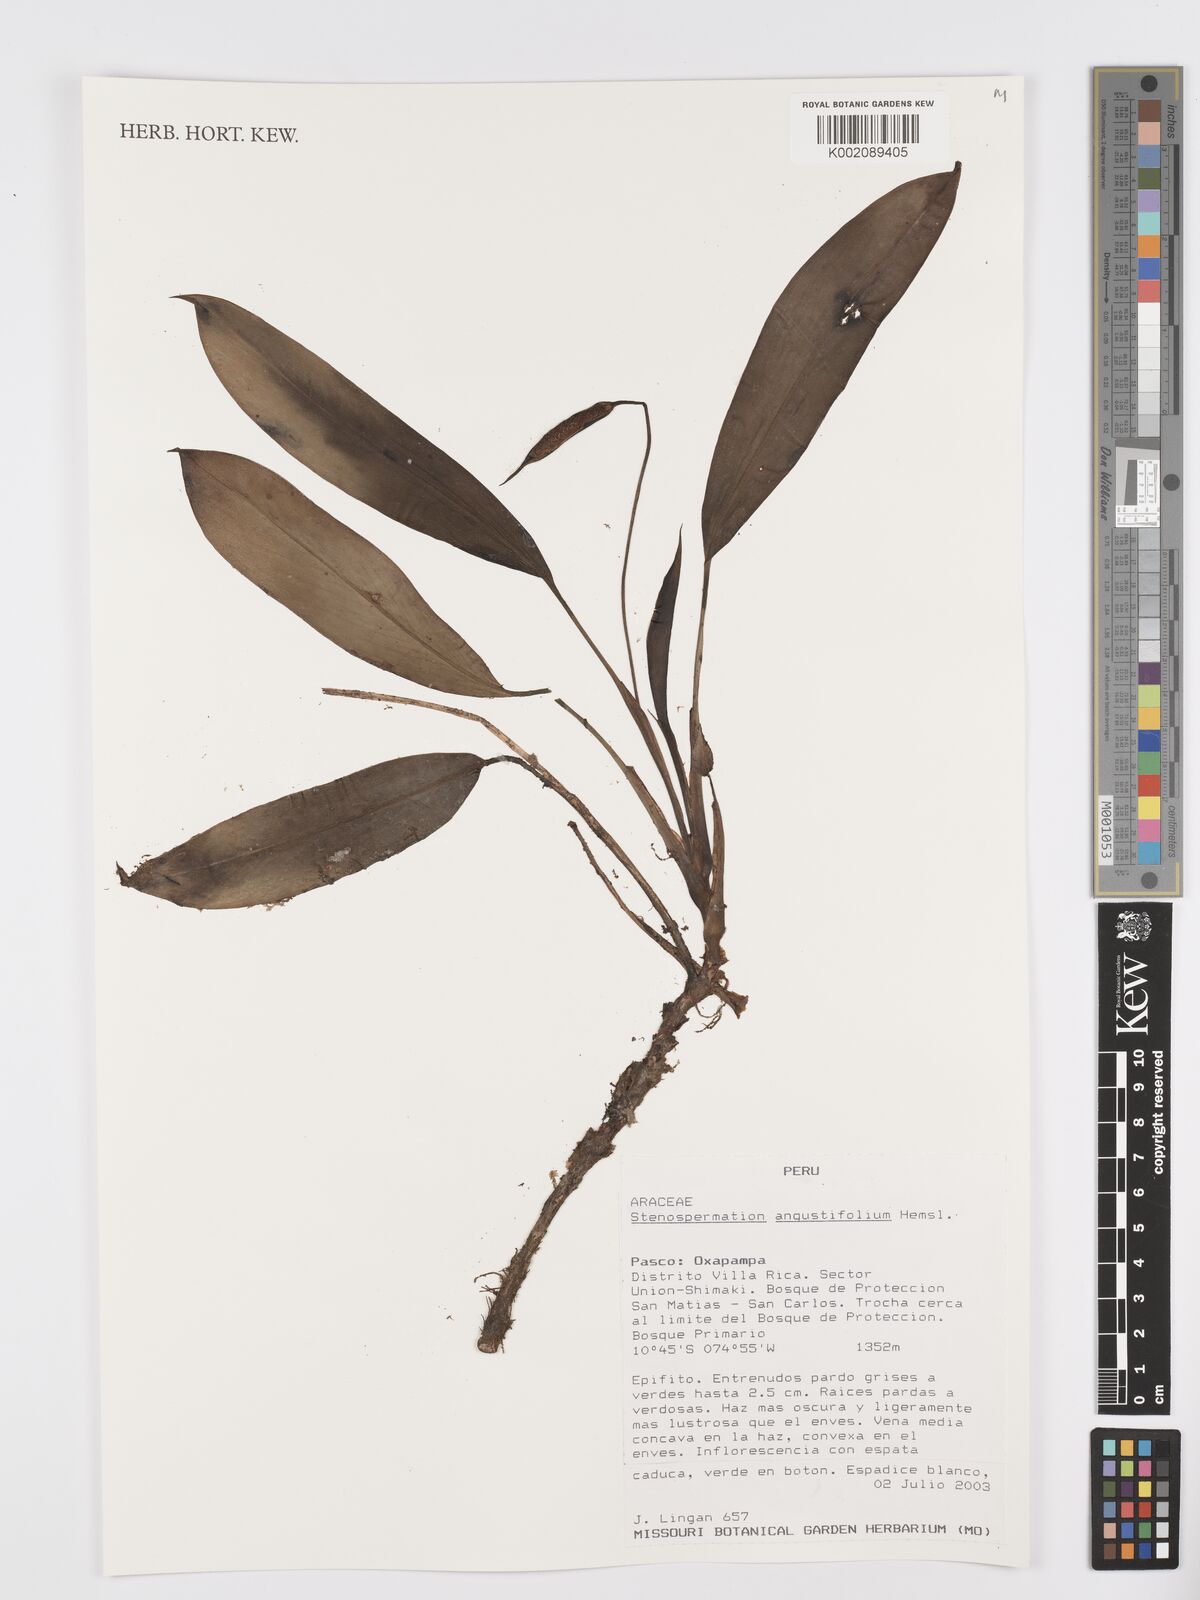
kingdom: Plantae
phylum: Tracheophyta
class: Liliopsida
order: Alismatales
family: Araceae
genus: Stenospermation
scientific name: Stenospermation angustifolium
